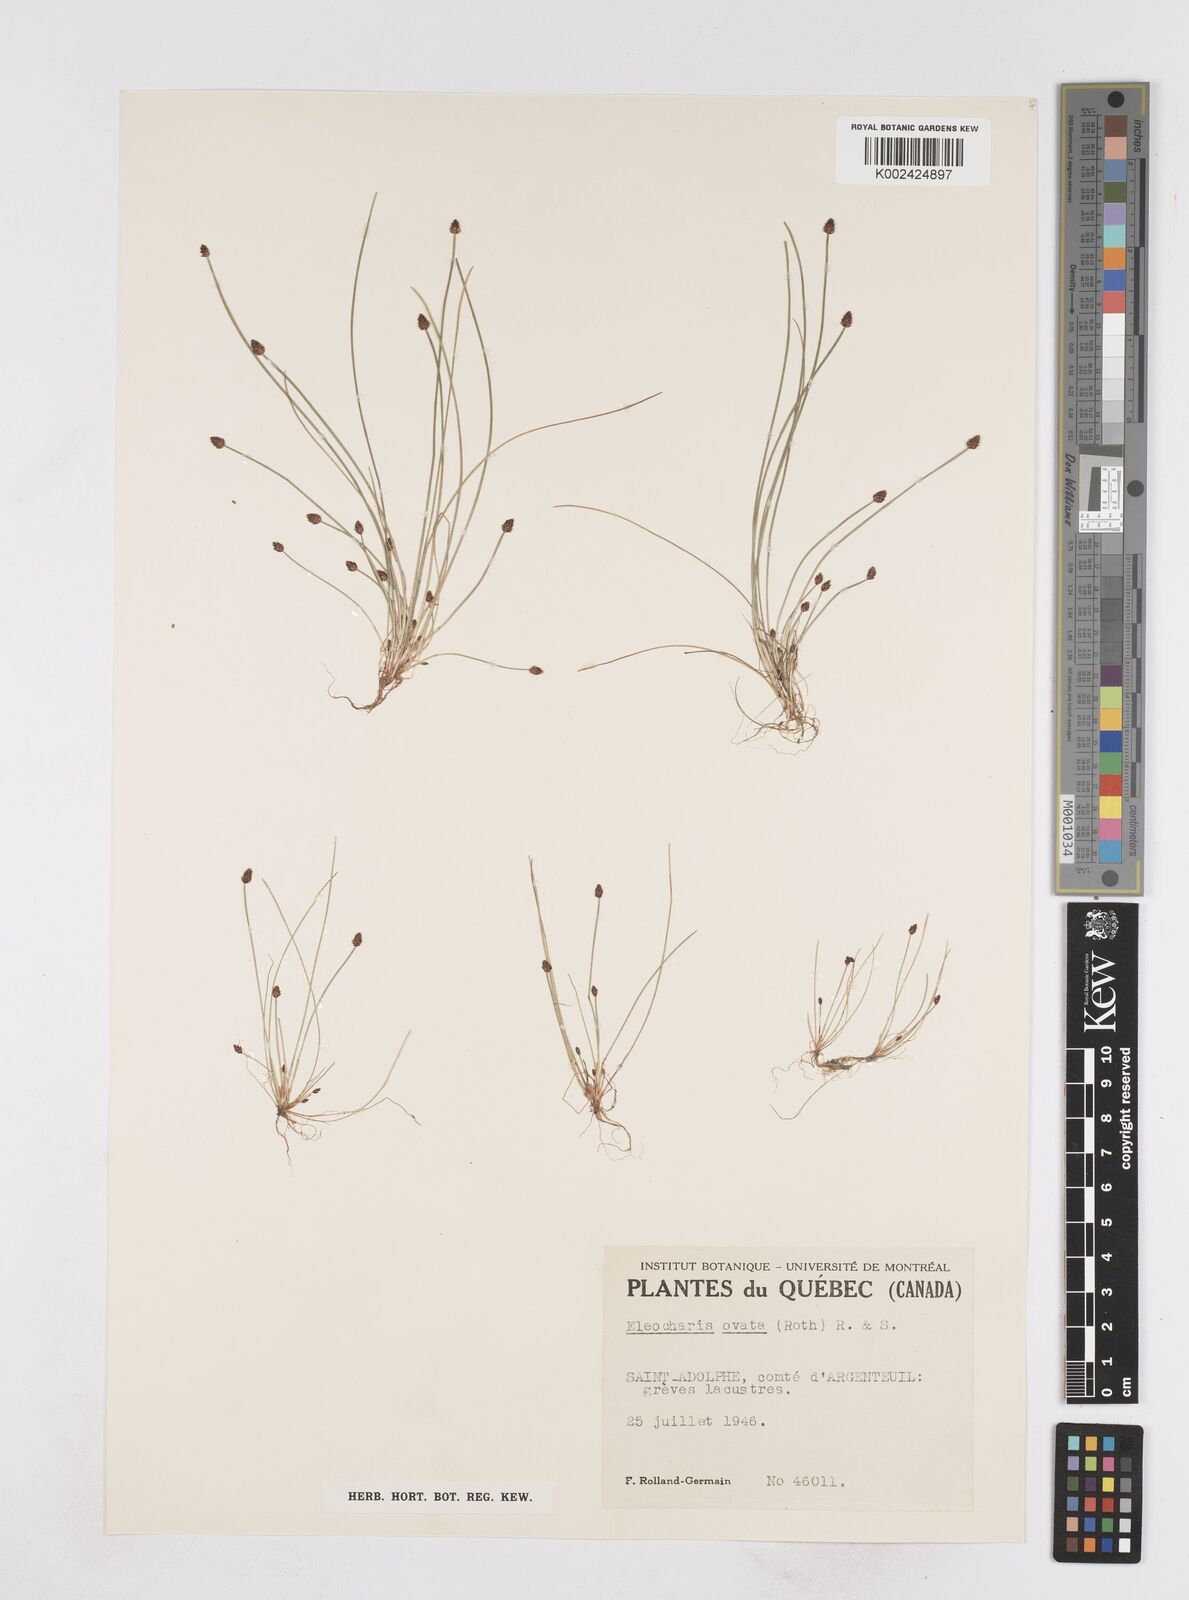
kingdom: Plantae
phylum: Tracheophyta
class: Liliopsida
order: Poales
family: Cyperaceae
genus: Eleocharis
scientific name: Eleocharis ovata
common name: Oval spike-rush
